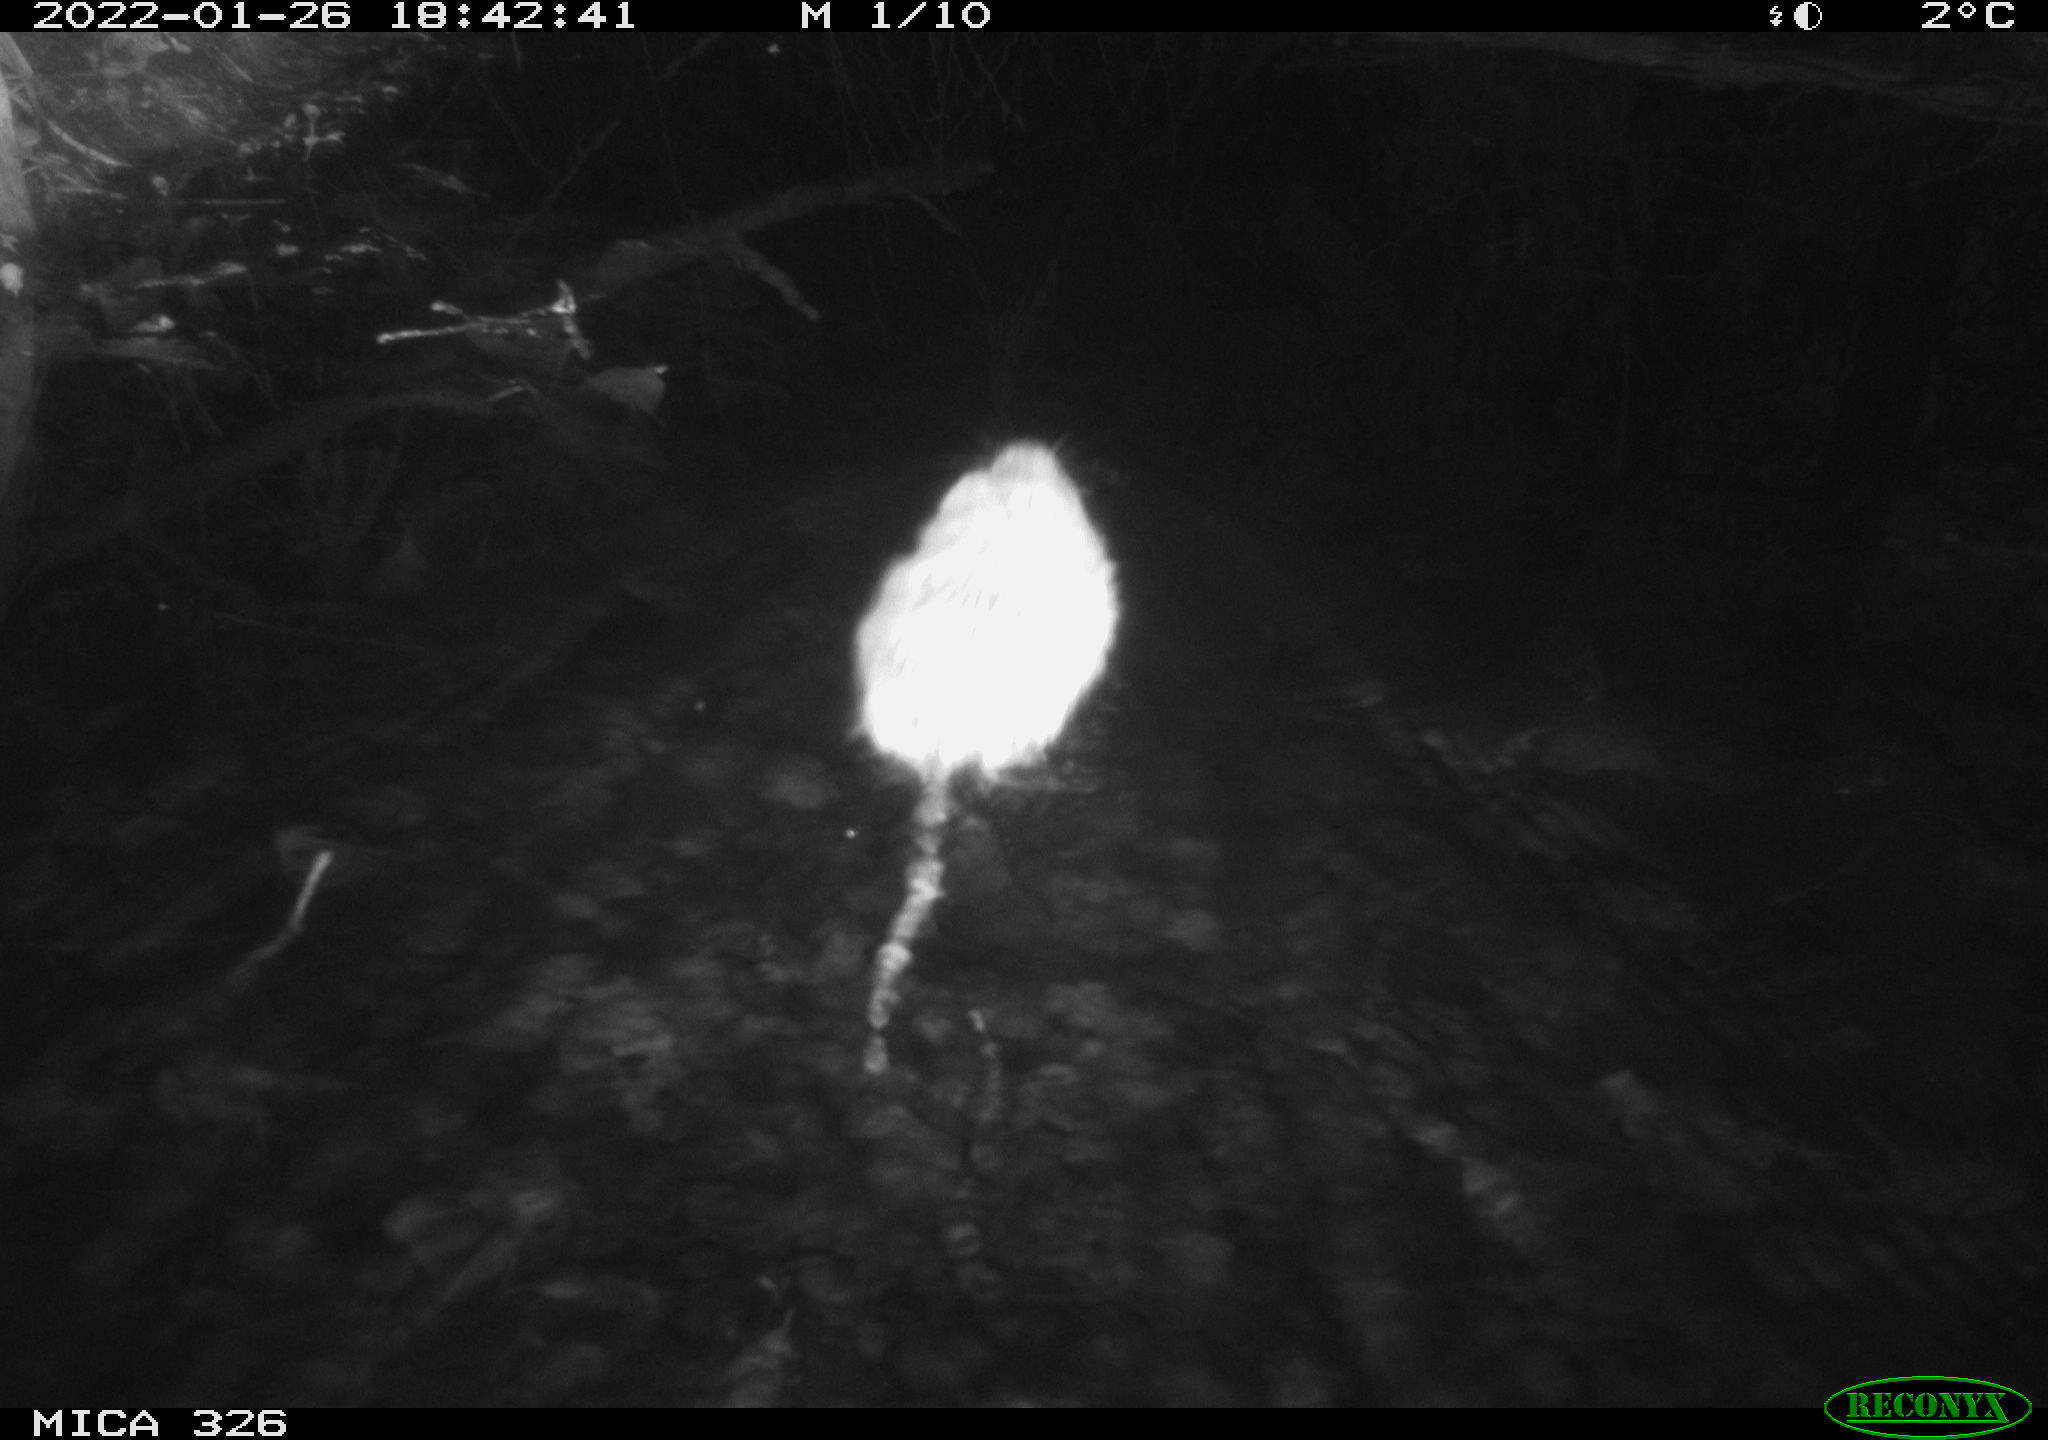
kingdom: Animalia
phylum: Chordata
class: Mammalia
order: Rodentia
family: Cricetidae
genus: Ondatra
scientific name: Ondatra zibethicus
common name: Muskrat
